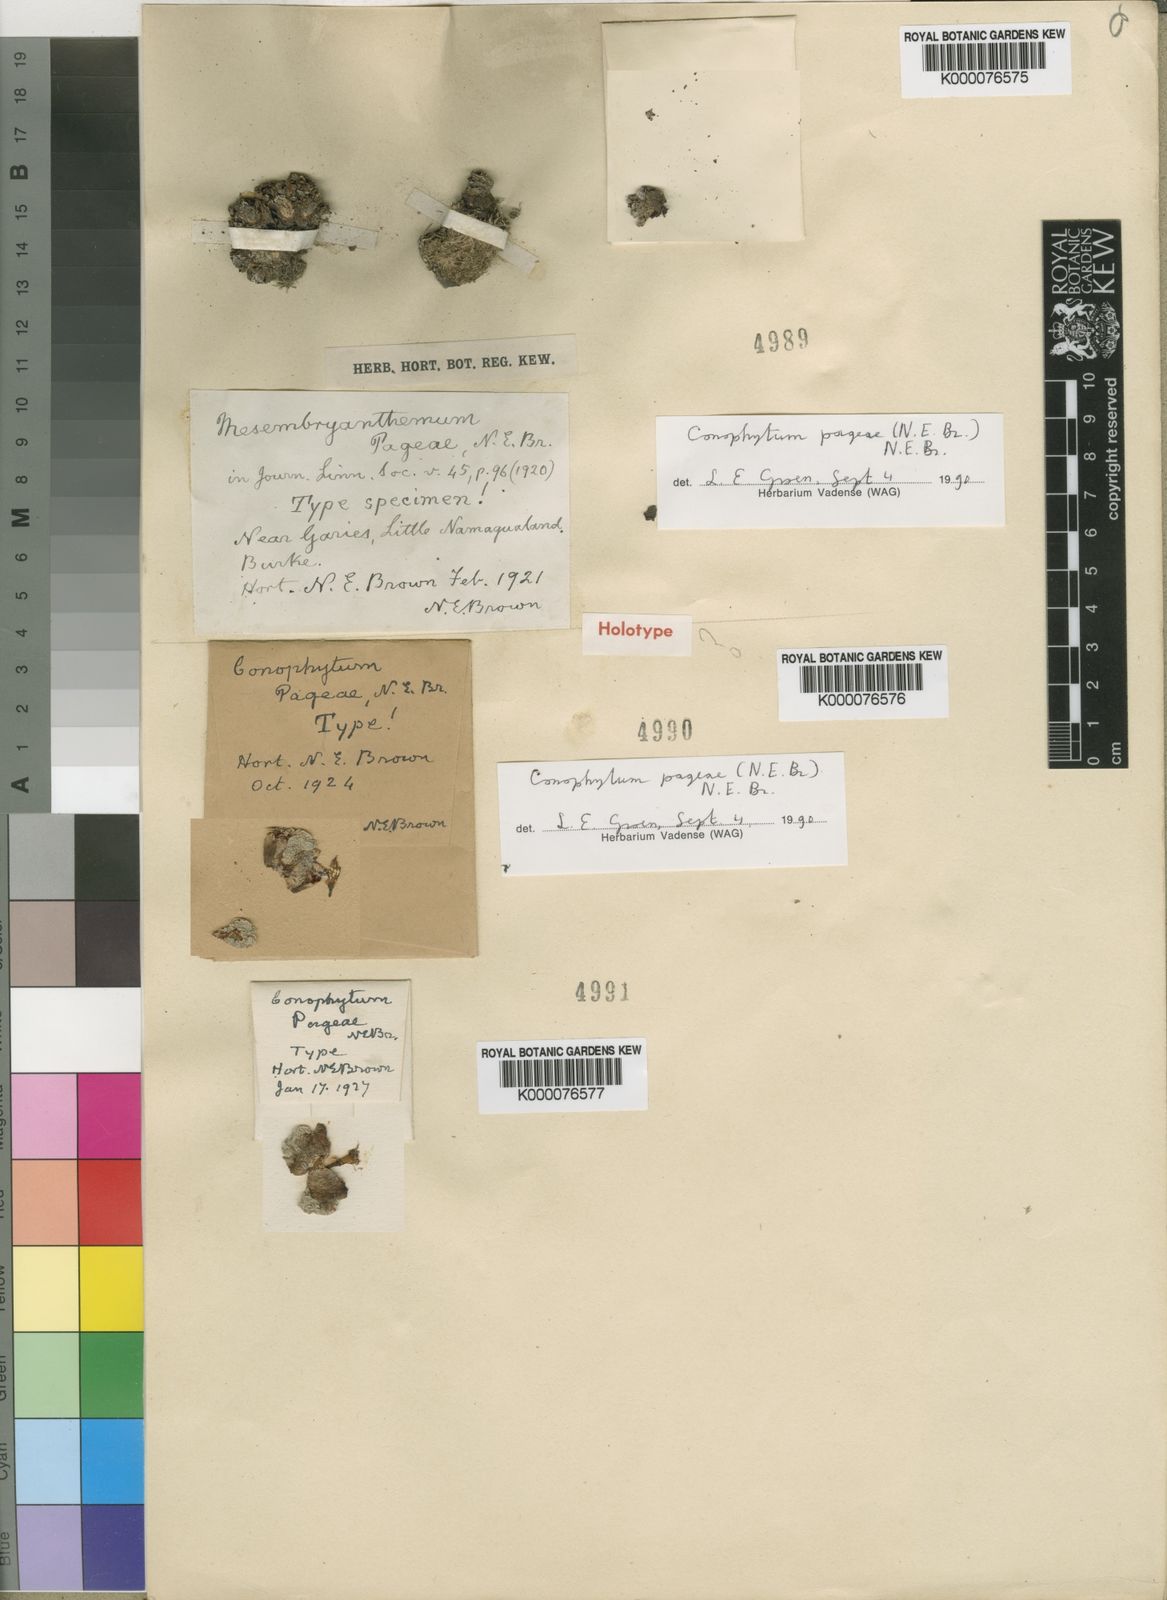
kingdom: Plantae
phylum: Tracheophyta
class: Magnoliopsida
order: Caryophyllales
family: Aizoaceae
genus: Conophytum
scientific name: Conophytum pageae
